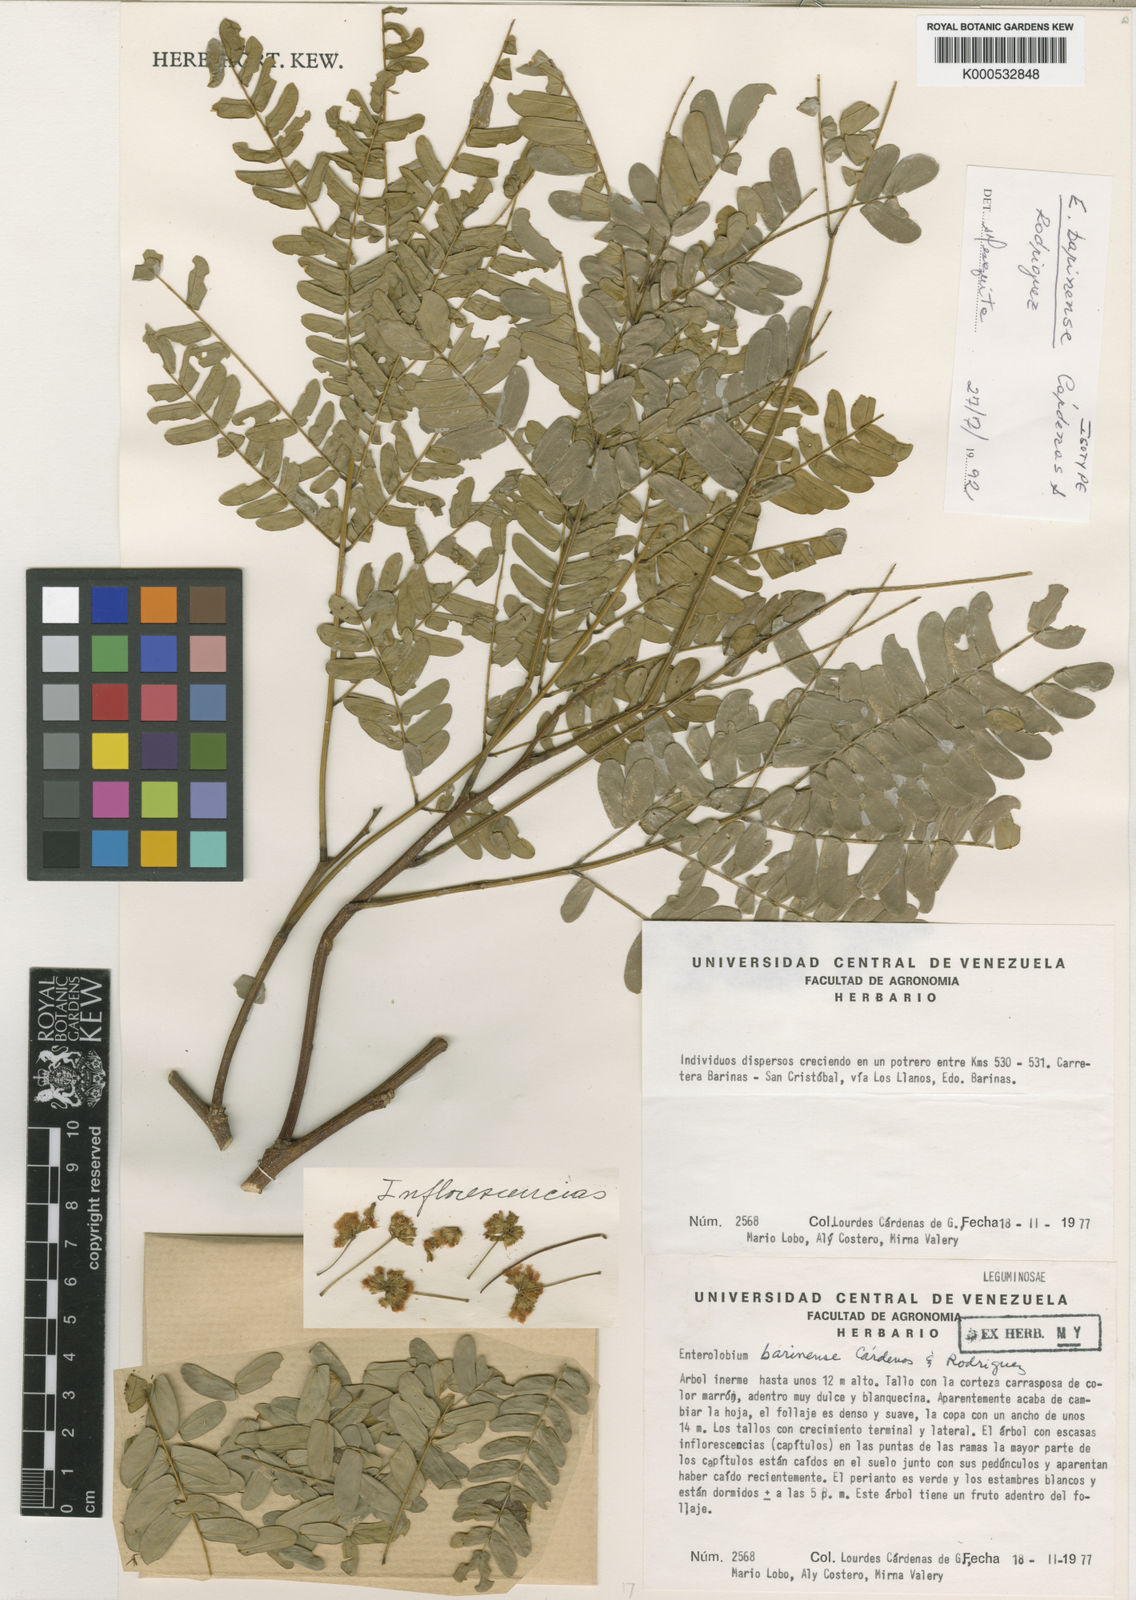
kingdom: Plantae
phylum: Tracheophyta
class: Magnoliopsida
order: Fabales
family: Fabaceae
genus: Enterolobium
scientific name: Enterolobium
